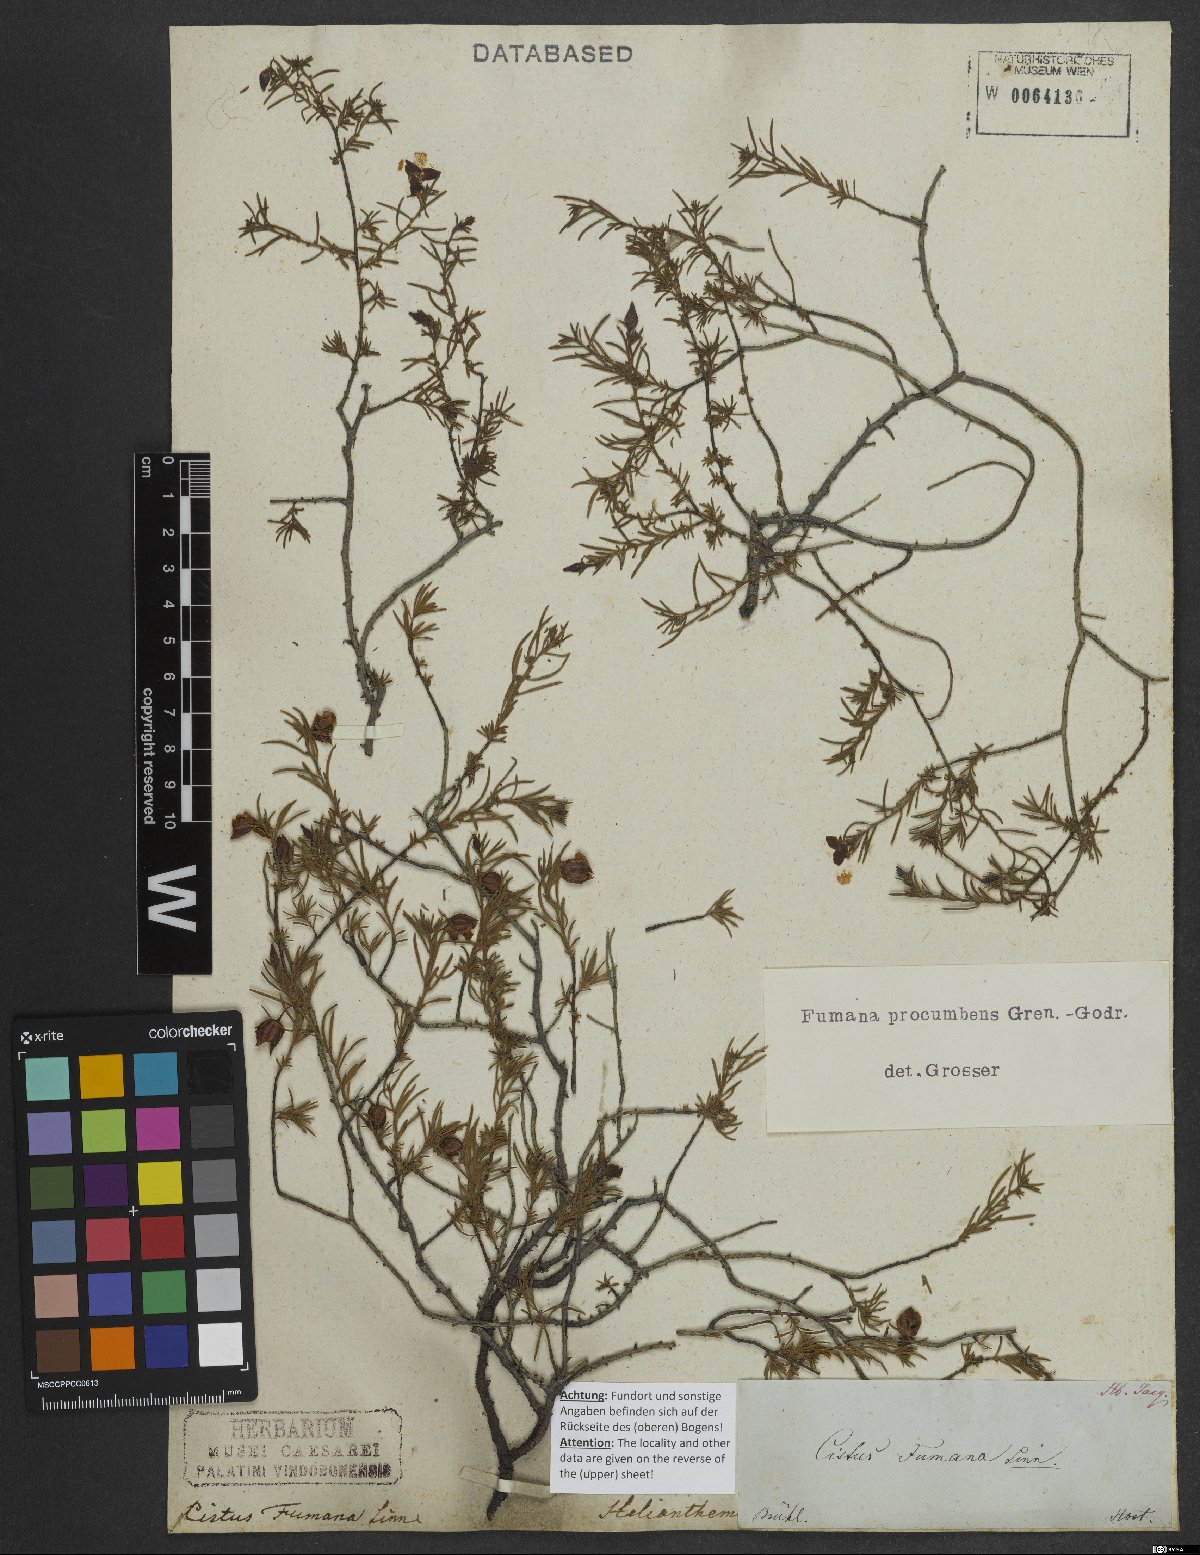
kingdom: Plantae
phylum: Tracheophyta
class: Magnoliopsida
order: Malvales
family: Cistaceae
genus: Fumana
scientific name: Fumana procumbens
